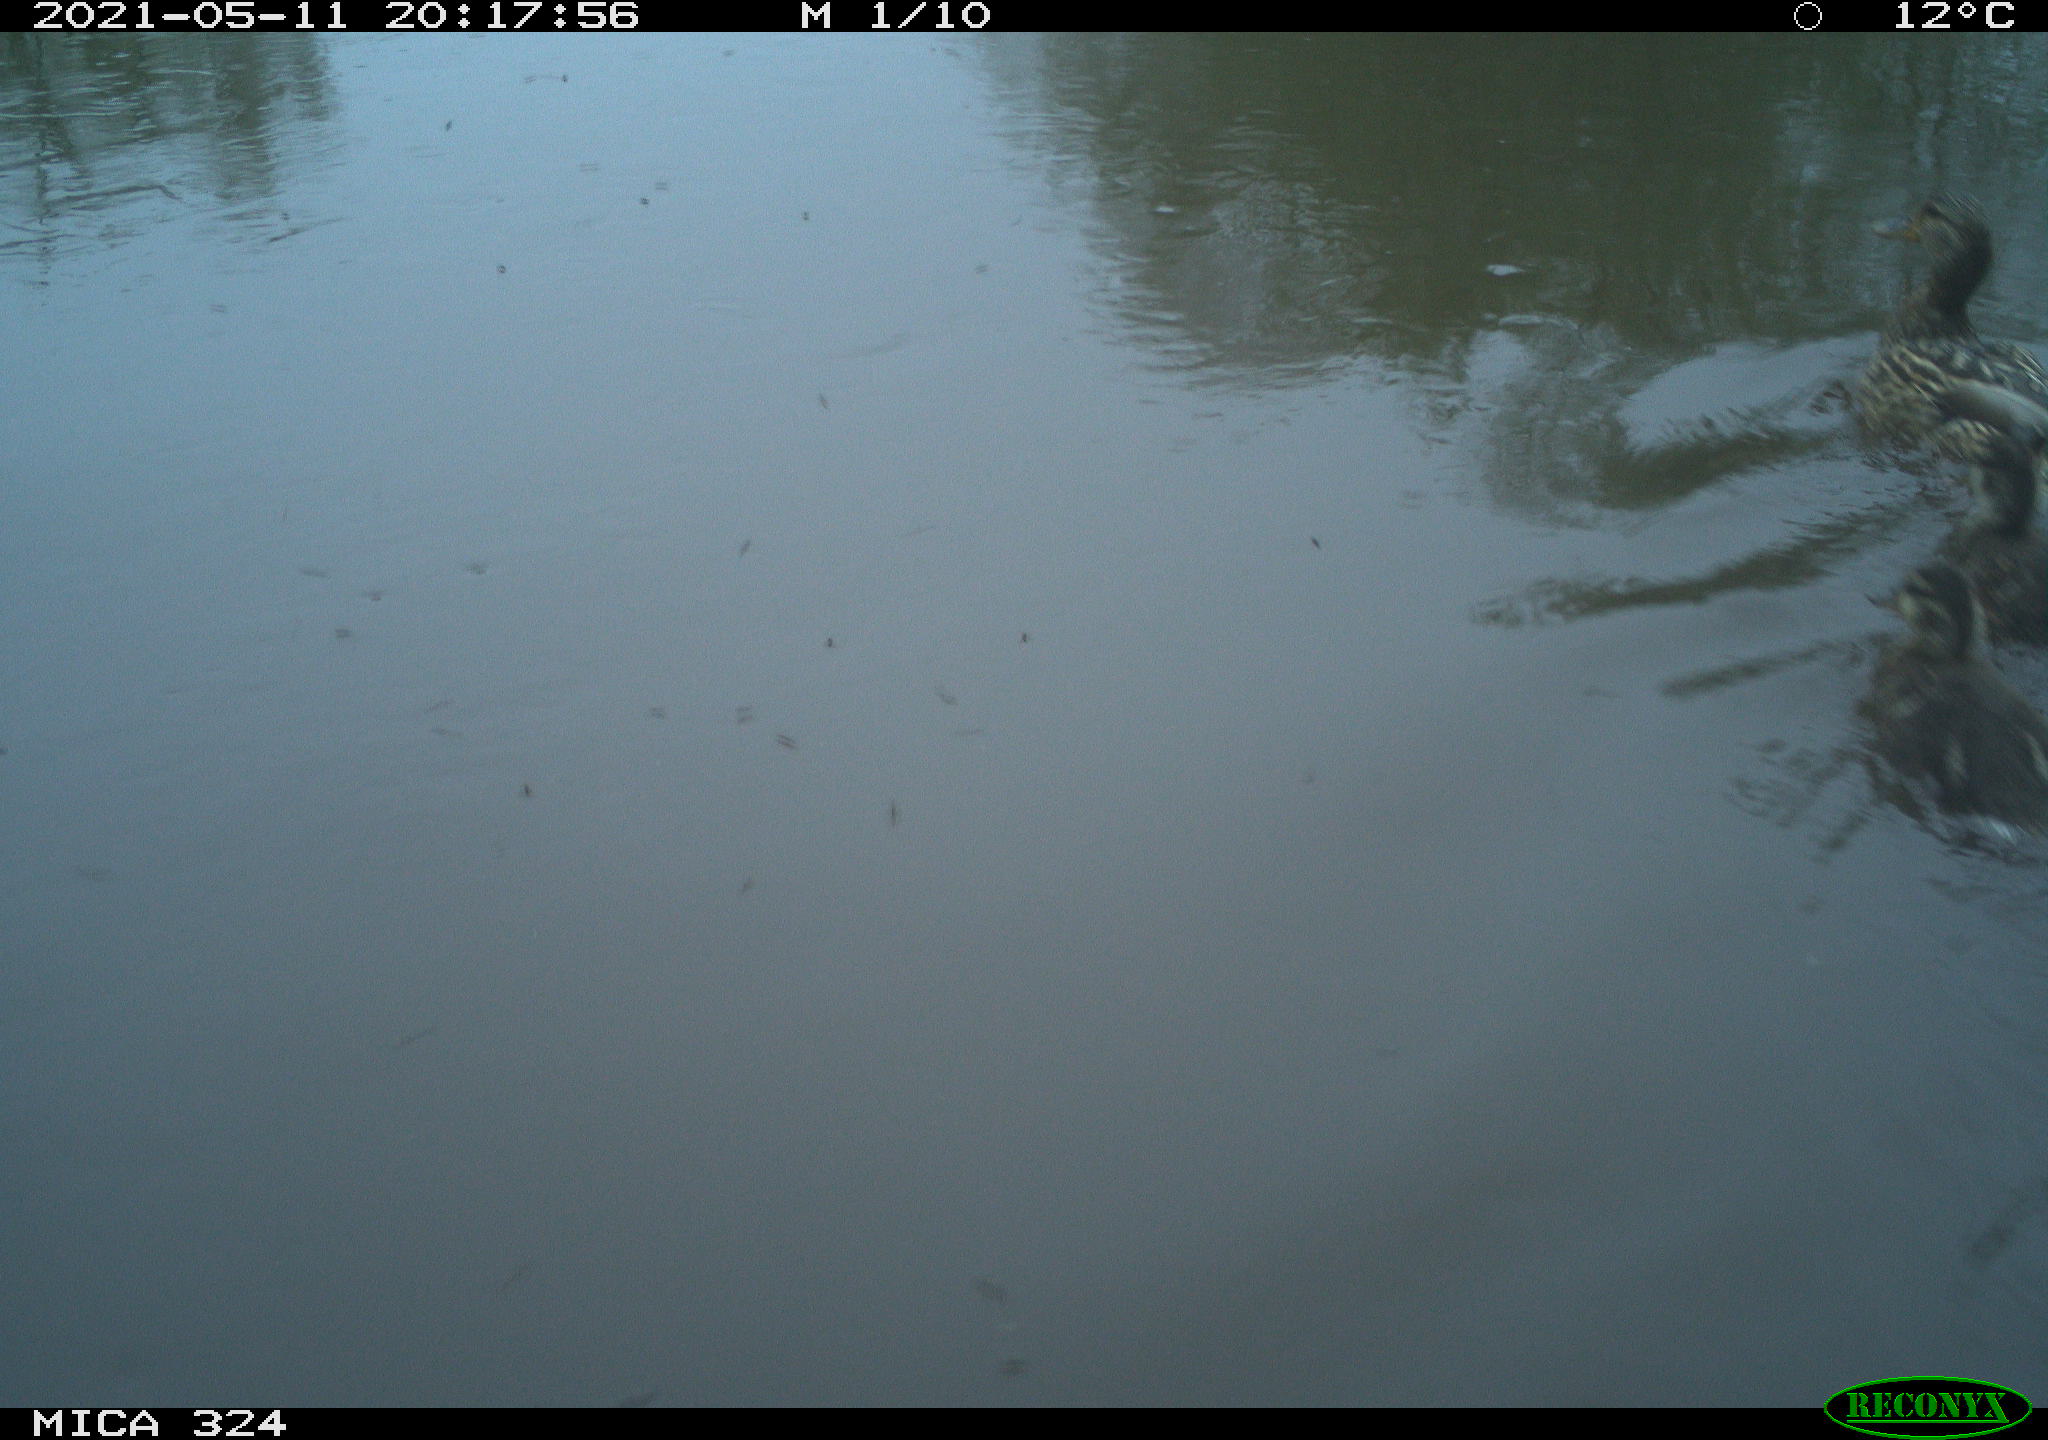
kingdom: Animalia
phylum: Chordata
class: Aves
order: Anseriformes
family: Anatidae
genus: Anas
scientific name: Anas platyrhynchos
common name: Mallard
